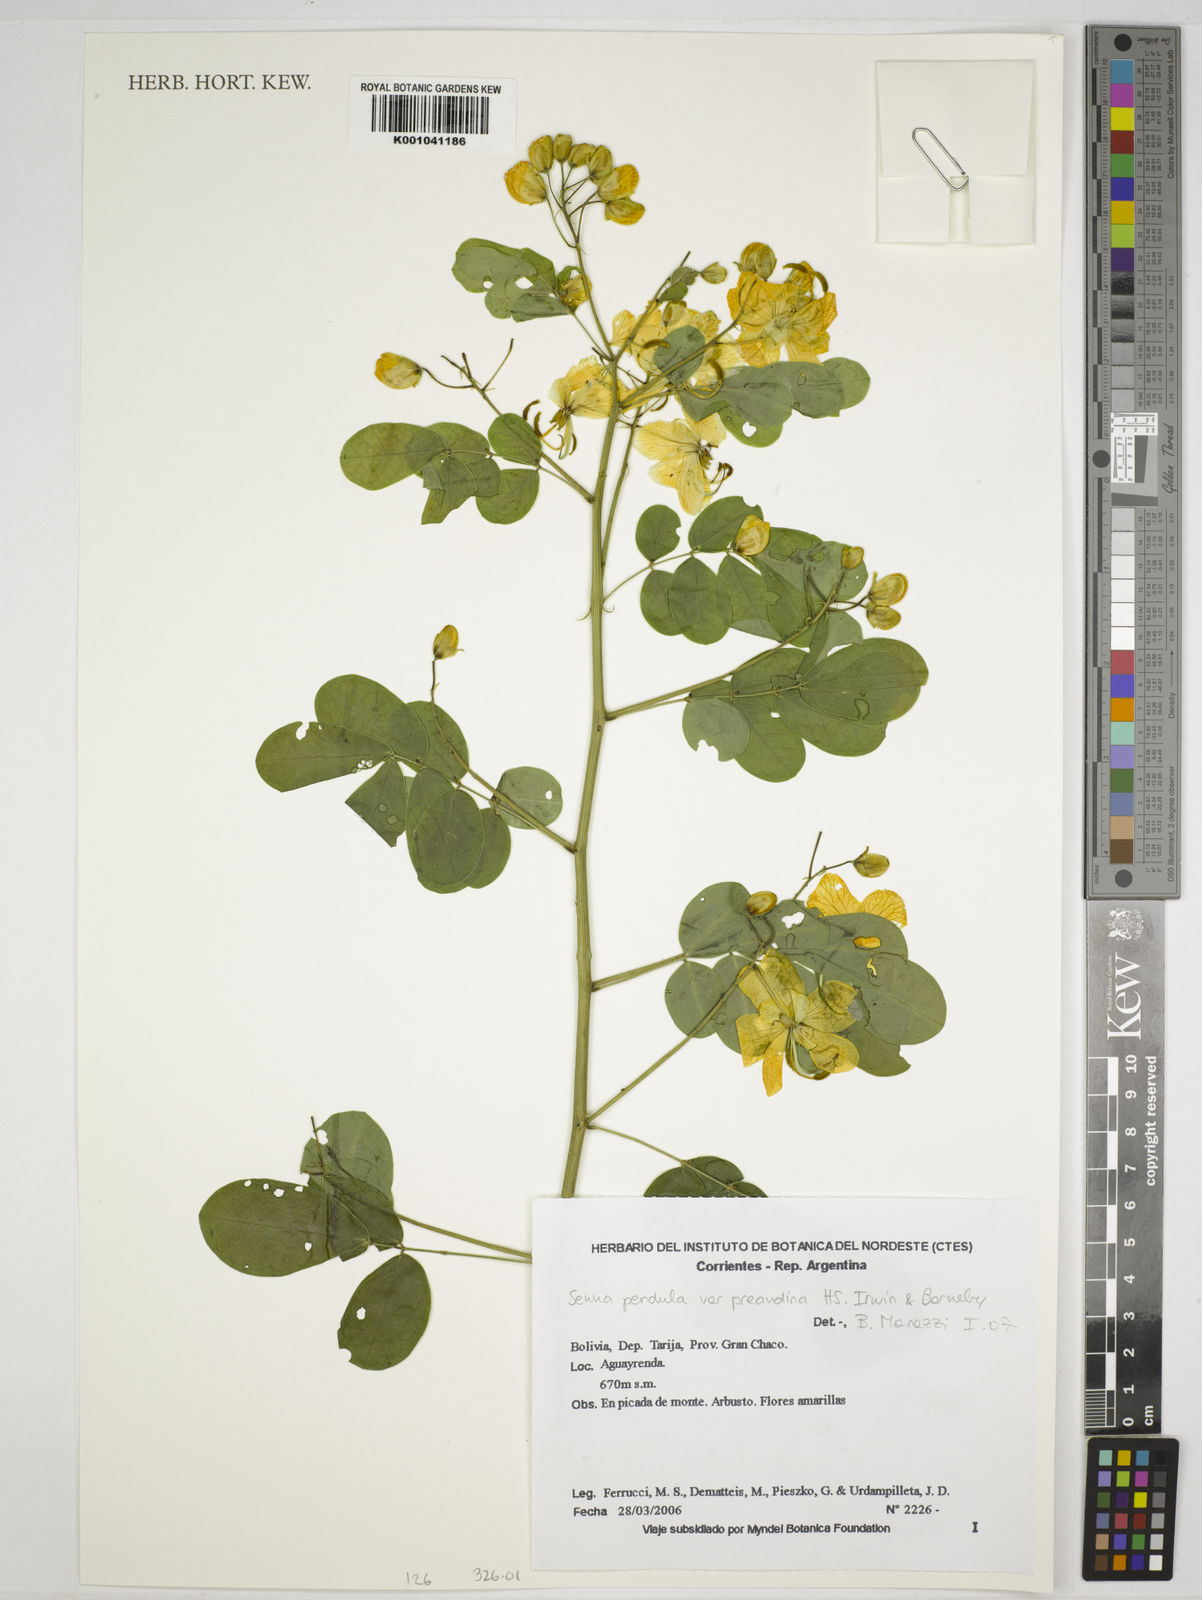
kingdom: Plantae
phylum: Tracheophyta
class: Magnoliopsida
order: Fabales
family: Fabaceae
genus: Senna
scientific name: Senna pendula
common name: Easter cassia
